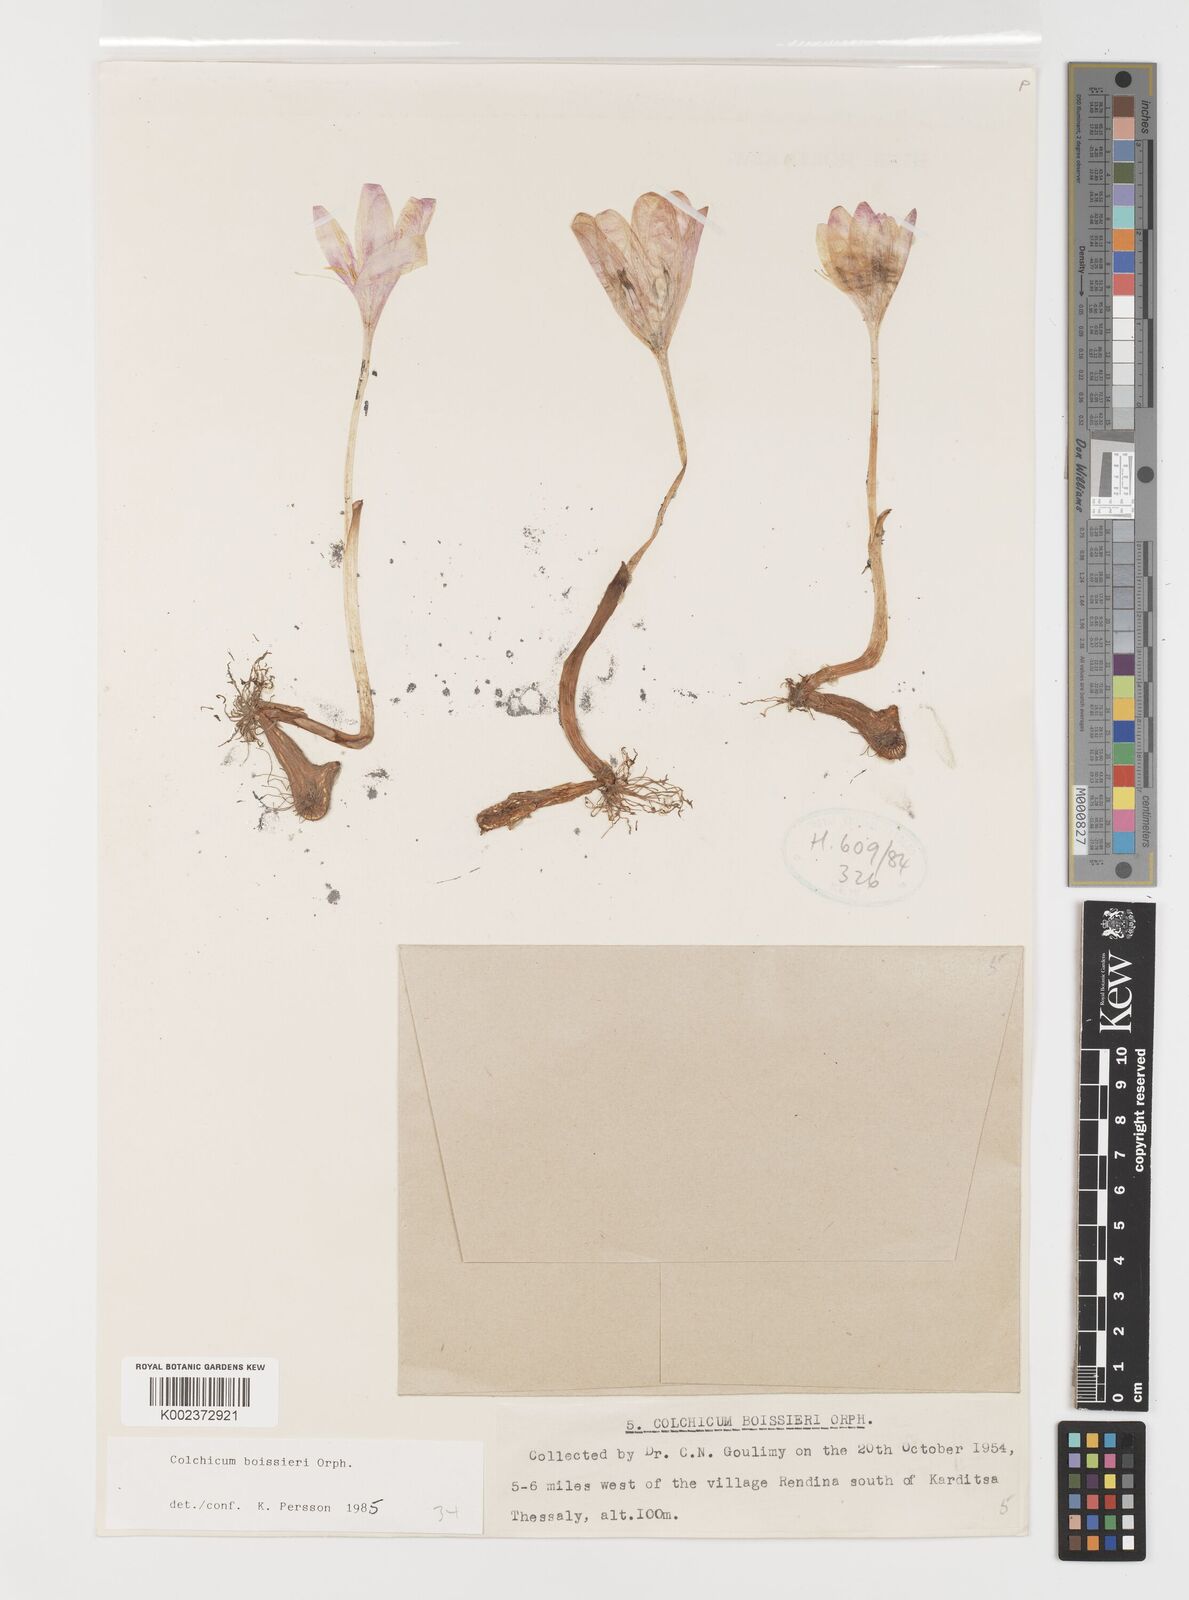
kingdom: Plantae
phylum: Tracheophyta
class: Liliopsida
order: Liliales
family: Colchicaceae
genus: Colchicum
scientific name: Colchicum boissieri
